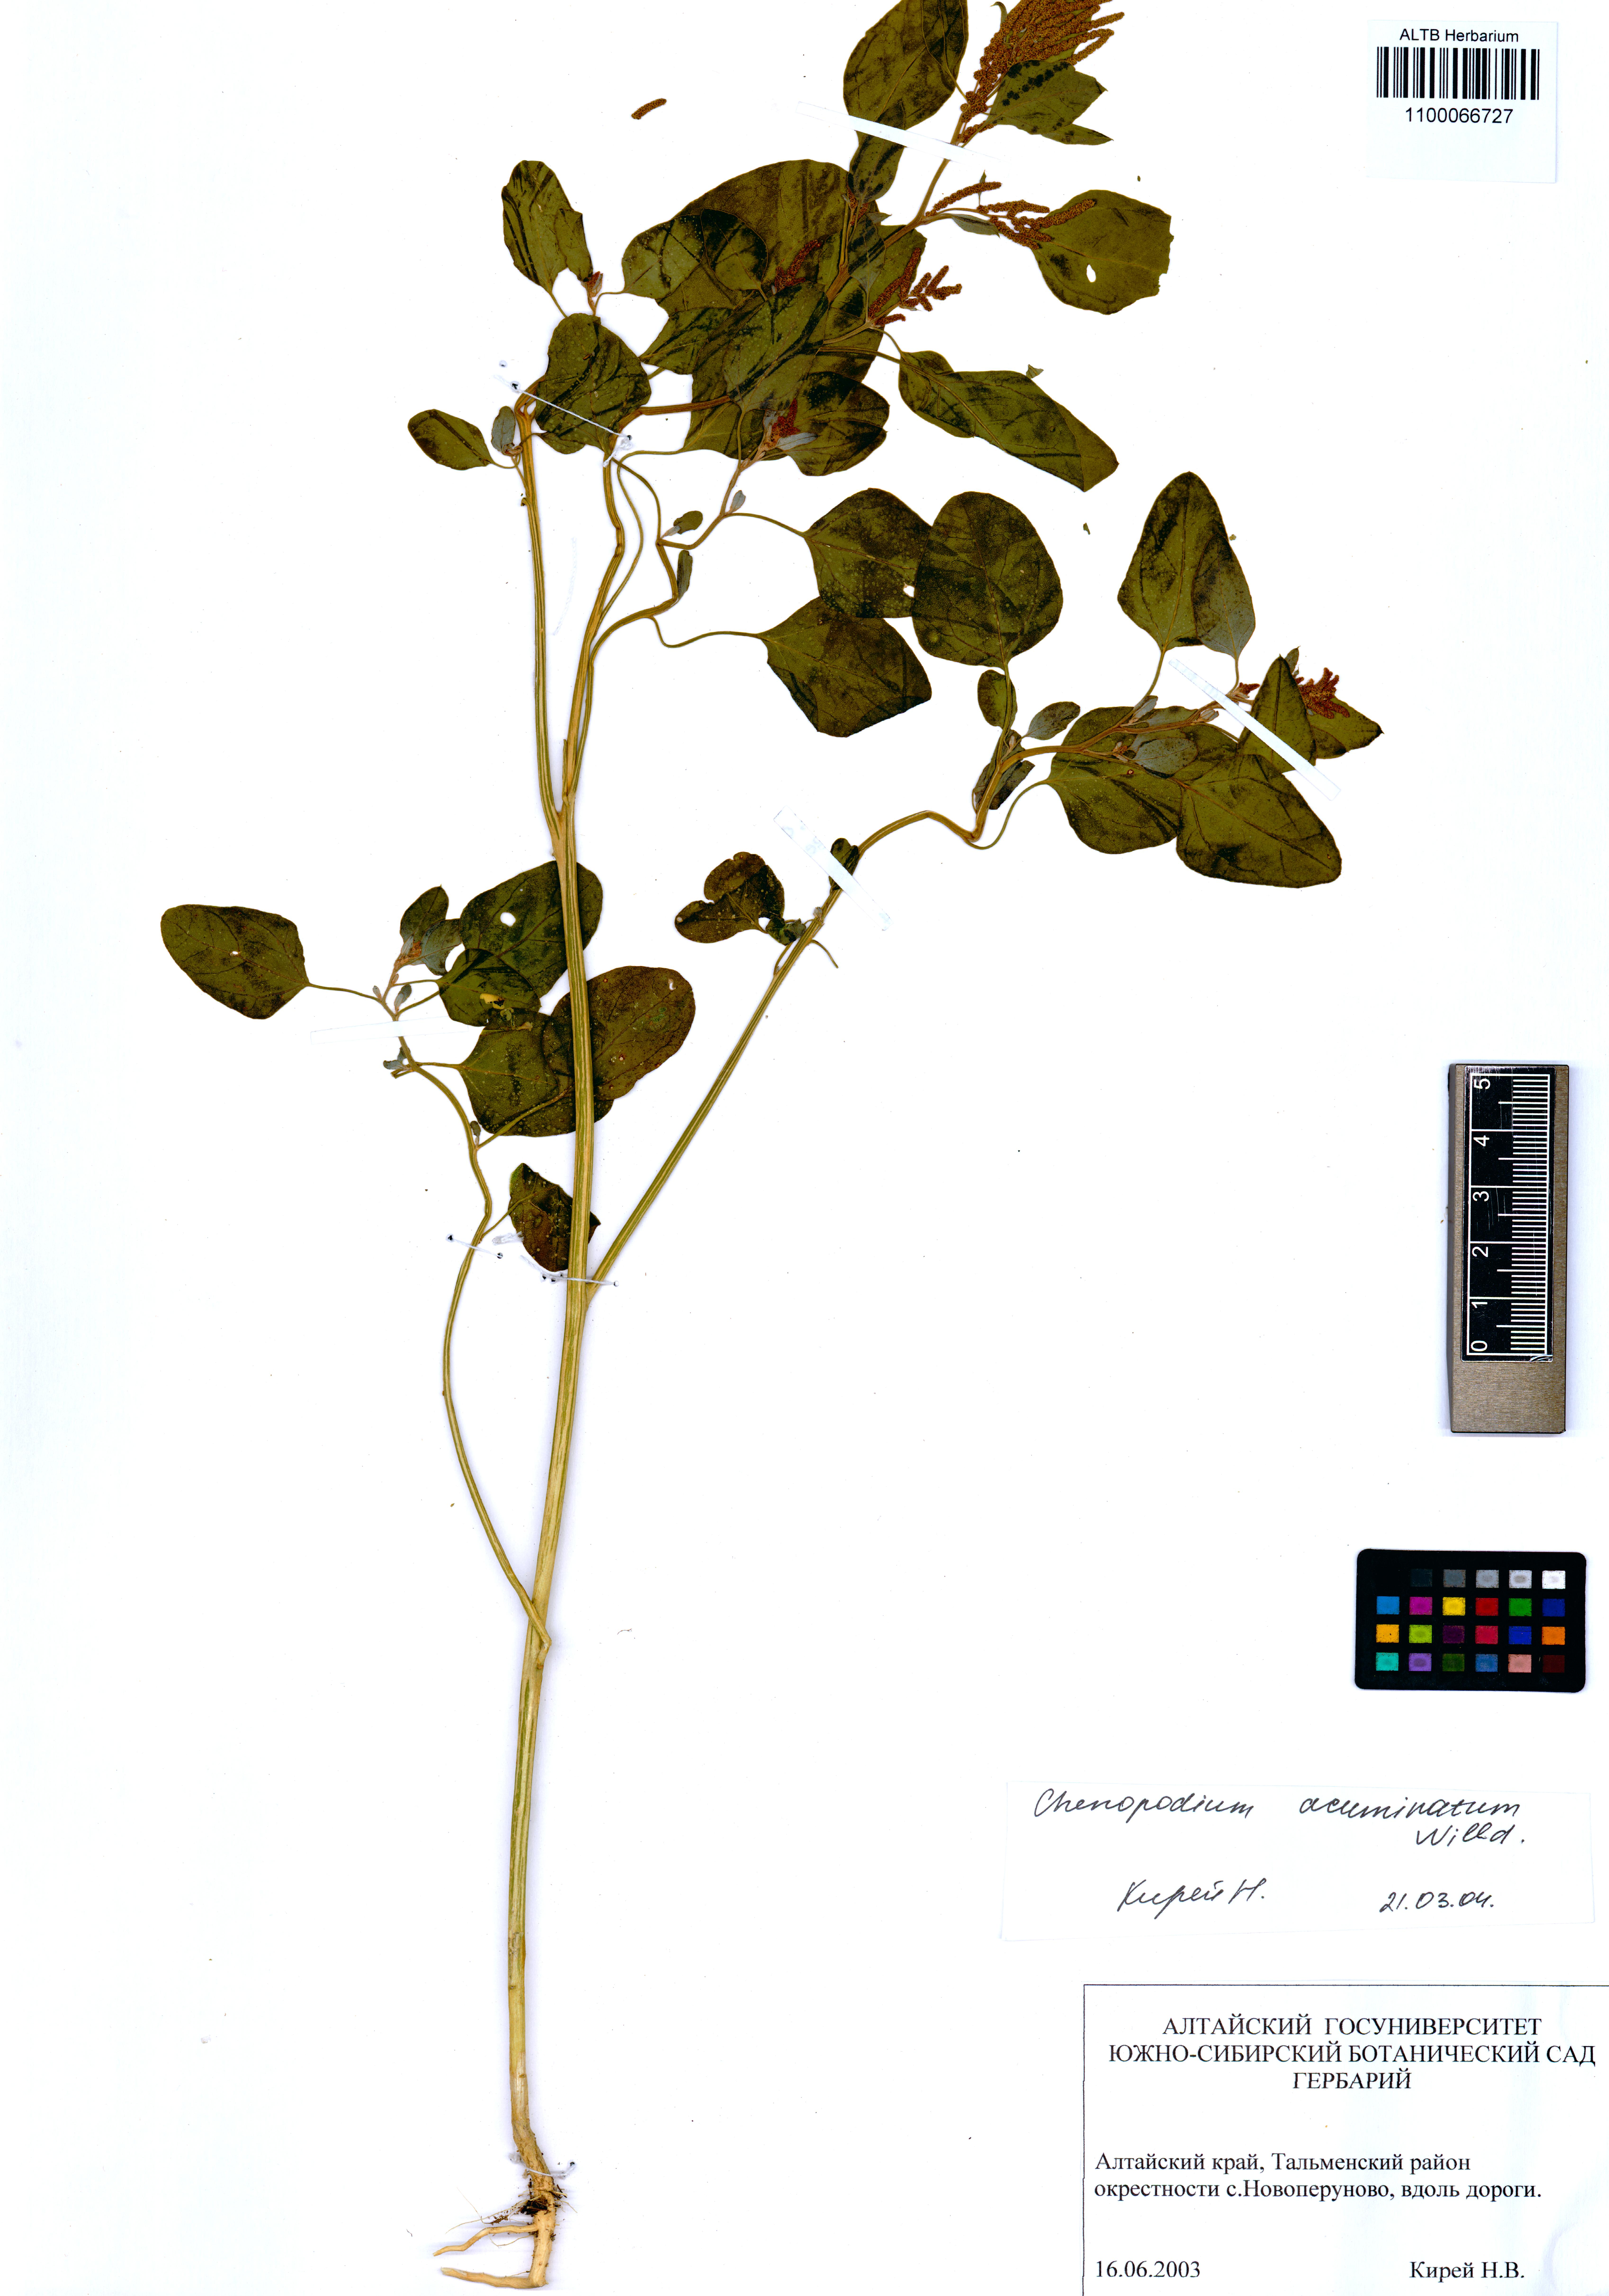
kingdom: Plantae
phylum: Tracheophyta
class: Magnoliopsida
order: Caryophyllales
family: Amaranthaceae
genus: Chenopodium
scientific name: Chenopodium acuminatum
